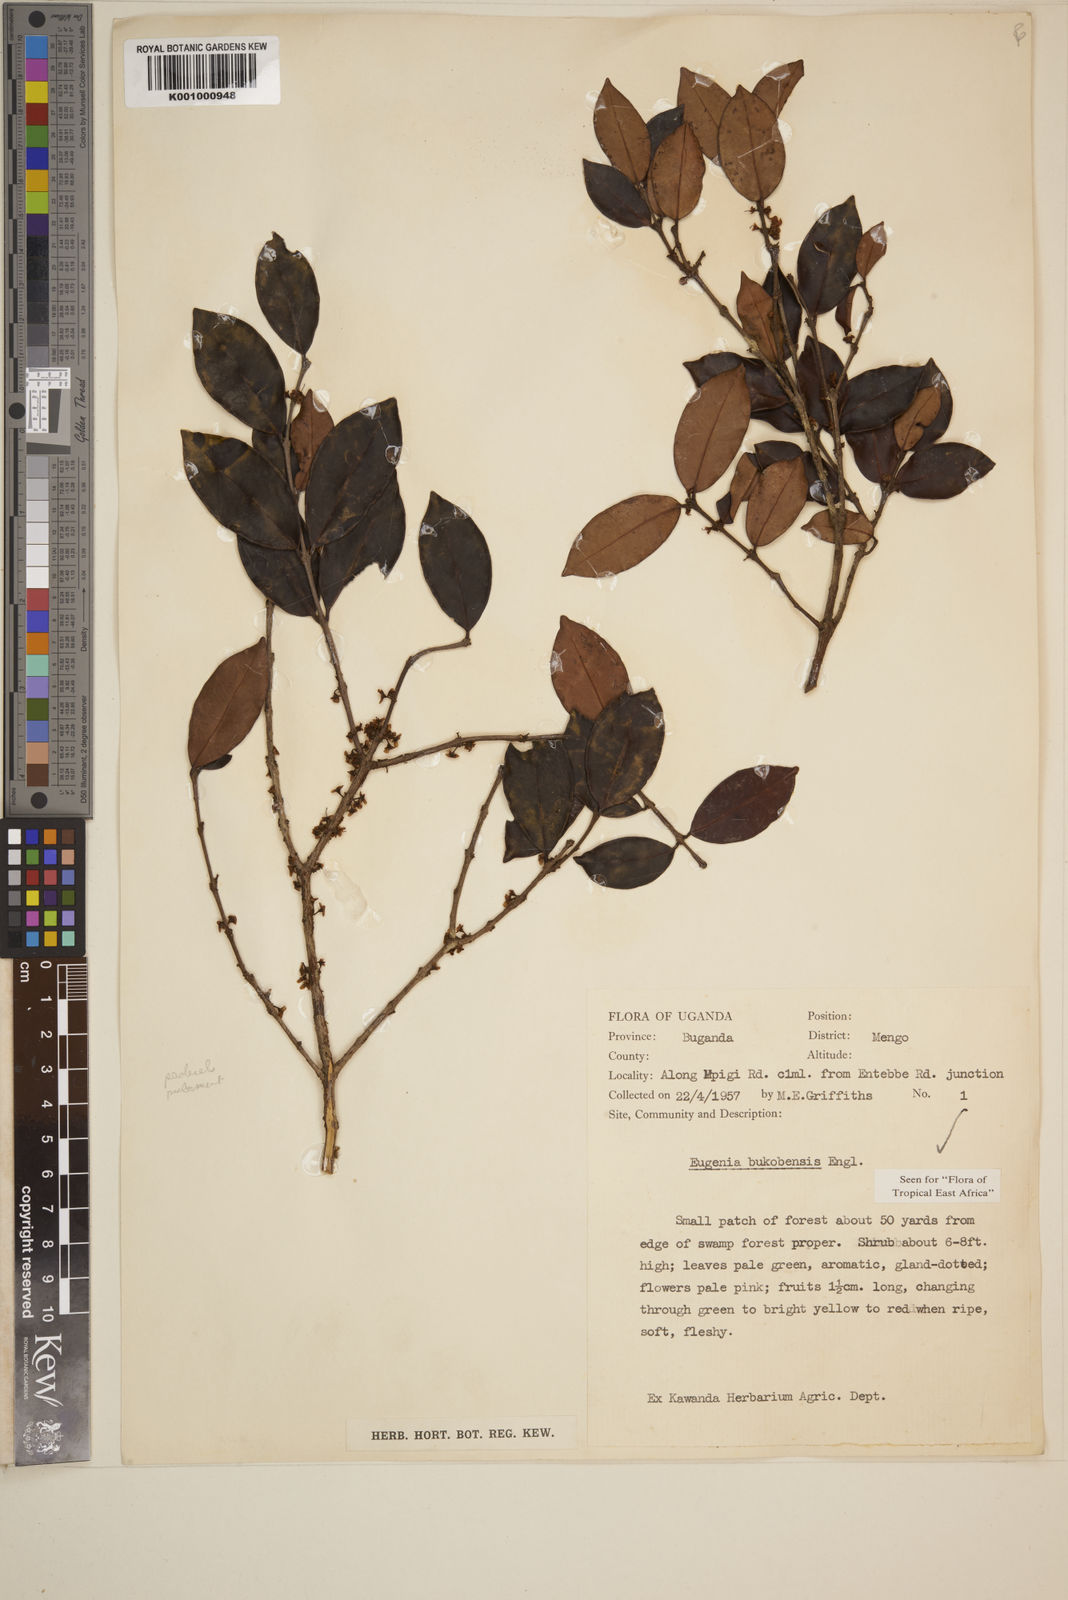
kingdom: Plantae
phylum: Tracheophyta
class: Magnoliopsida
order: Myrtales
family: Myrtaceae
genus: Eugenia
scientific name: Eugenia bukobensis
